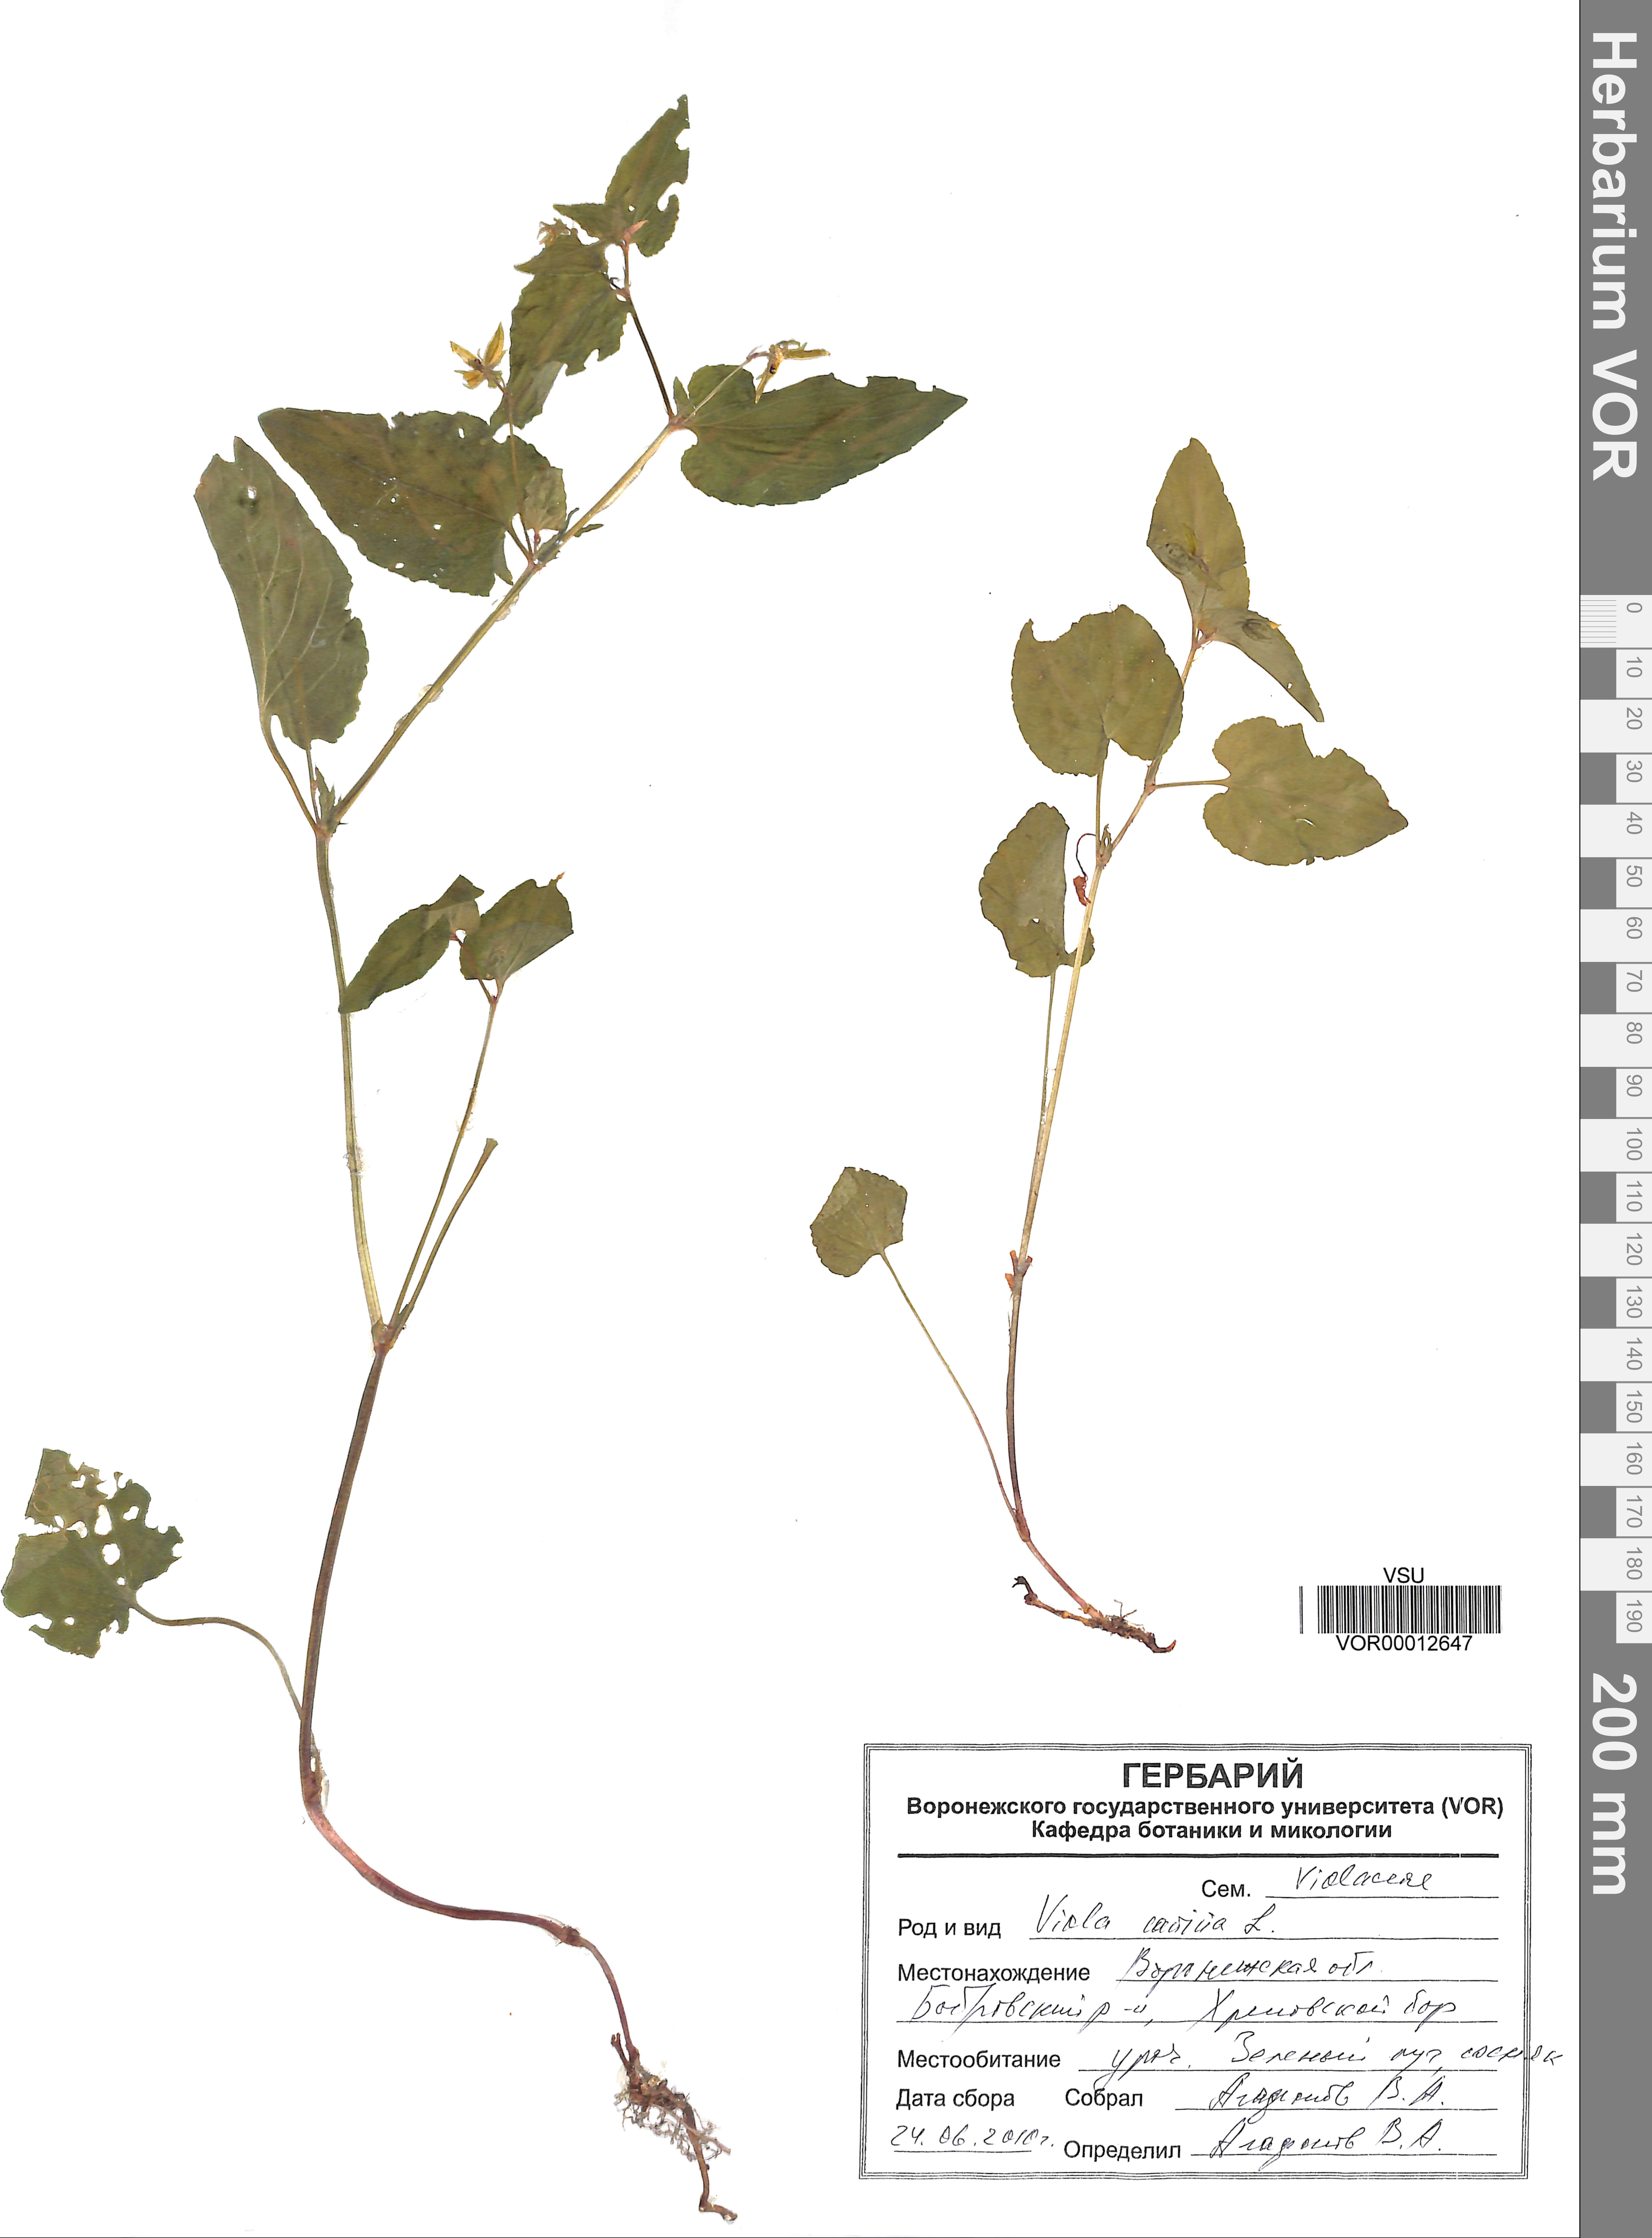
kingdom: Plantae
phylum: Tracheophyta
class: Magnoliopsida
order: Malpighiales
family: Violaceae
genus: Viola
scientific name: Viola canina
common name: Heath dog-violet
